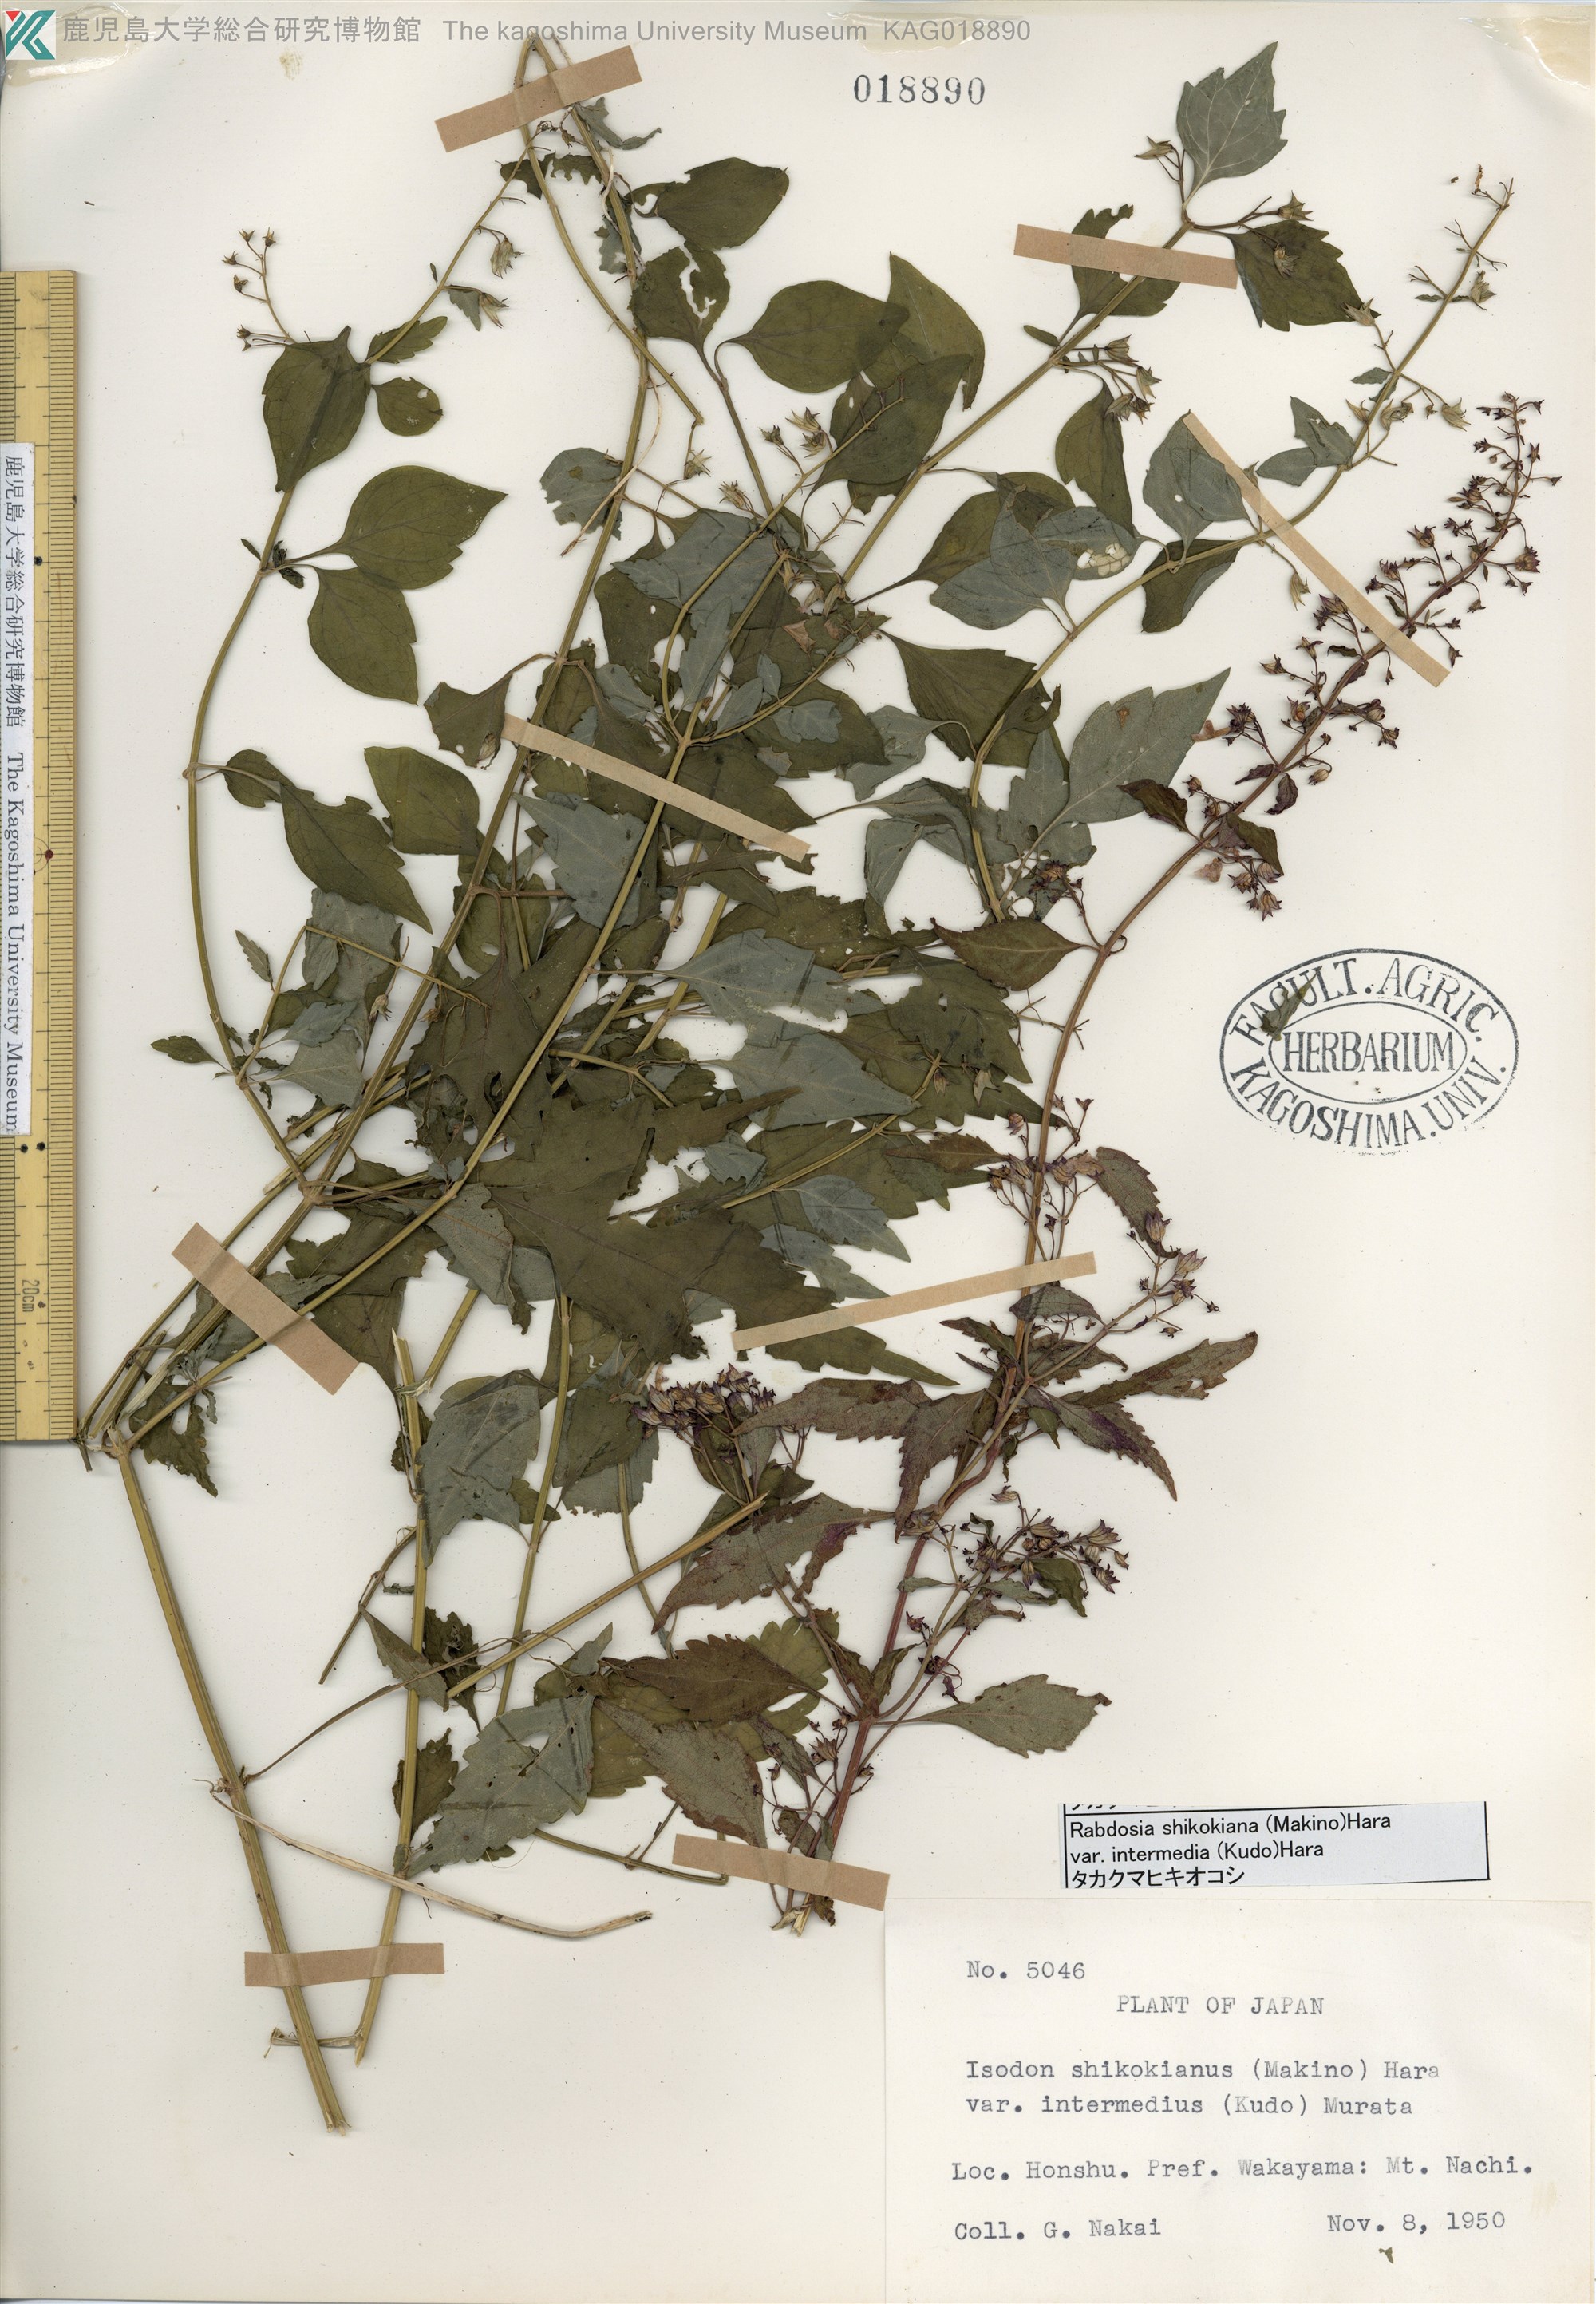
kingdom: Plantae
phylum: Tracheophyta
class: Magnoliopsida
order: Lamiales
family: Lamiaceae
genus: Isodon
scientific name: Isodon shikokianus
